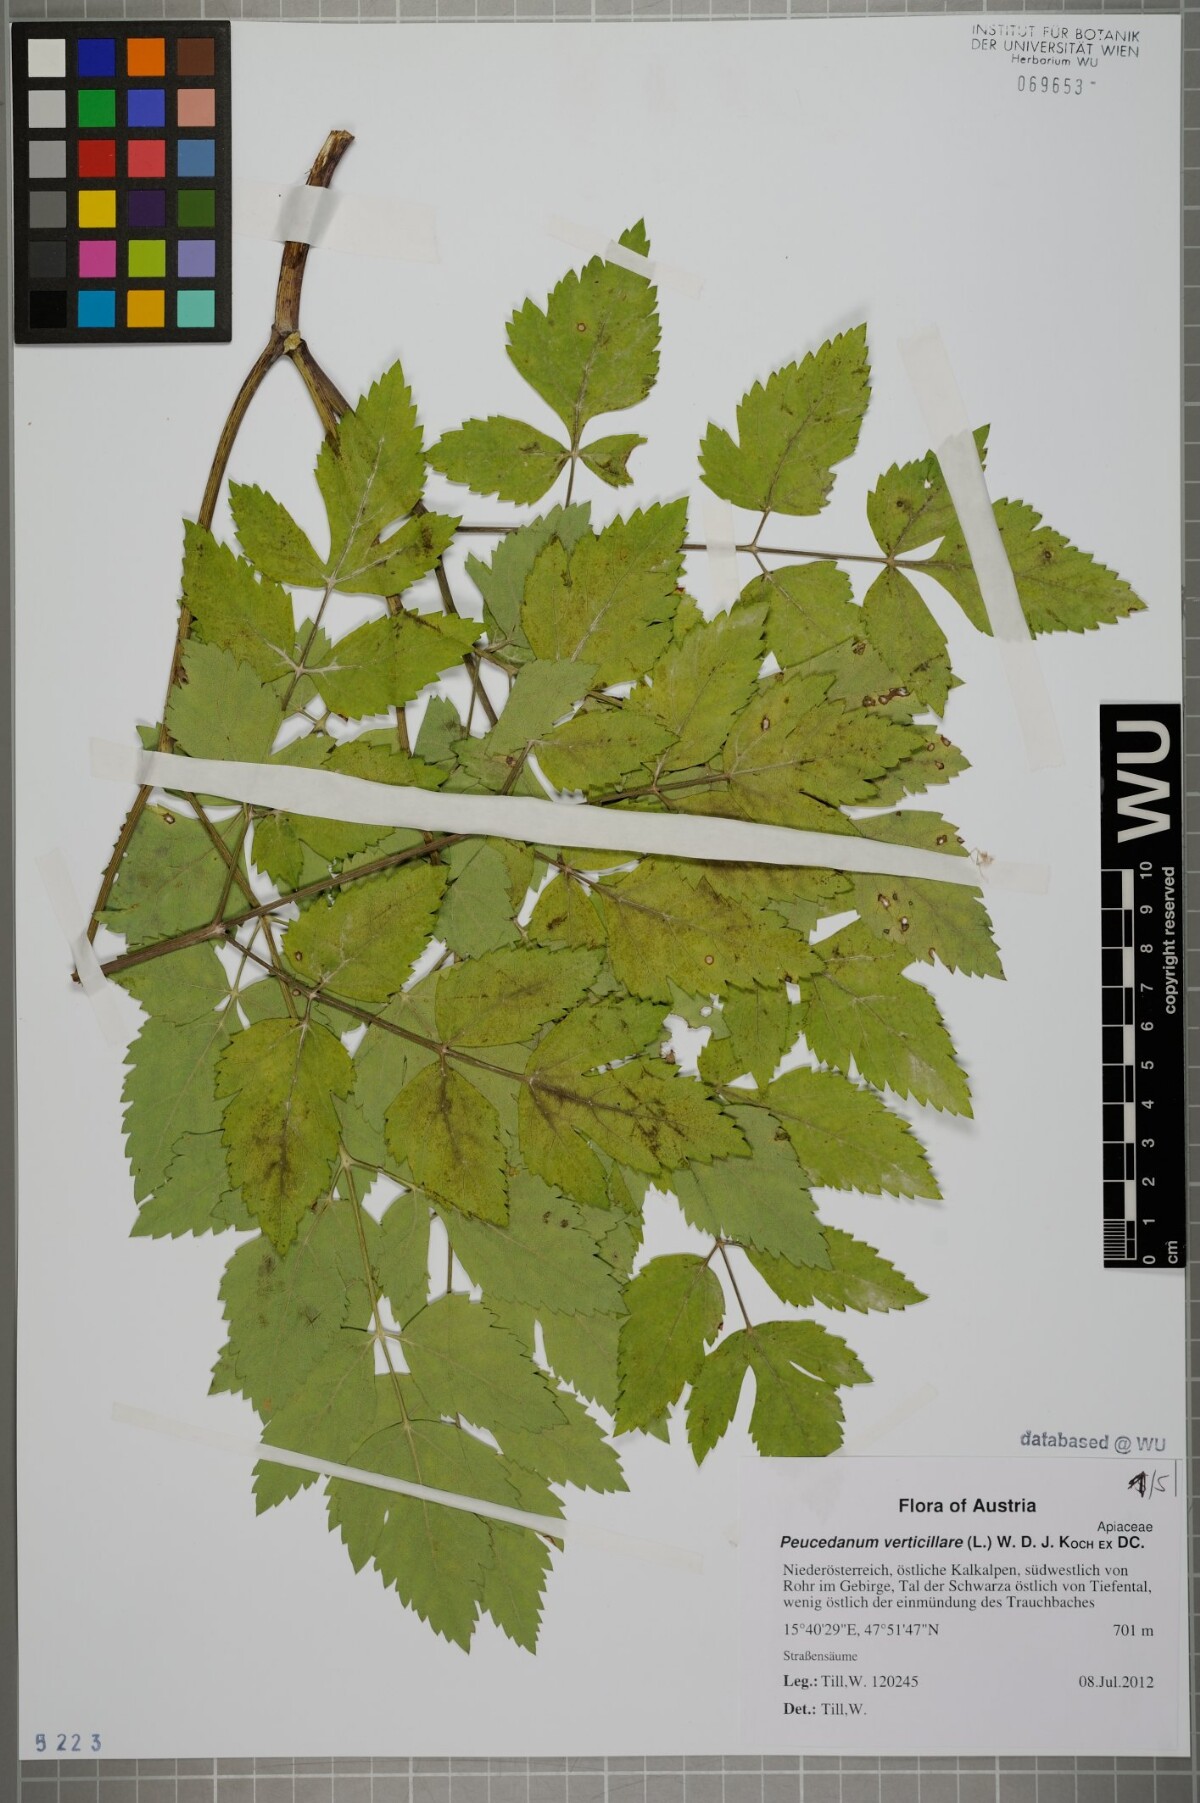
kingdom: Plantae
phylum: Tracheophyta
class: Magnoliopsida
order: Apiales
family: Apiaceae
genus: Tommasinia
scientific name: Tommasinia altissima
